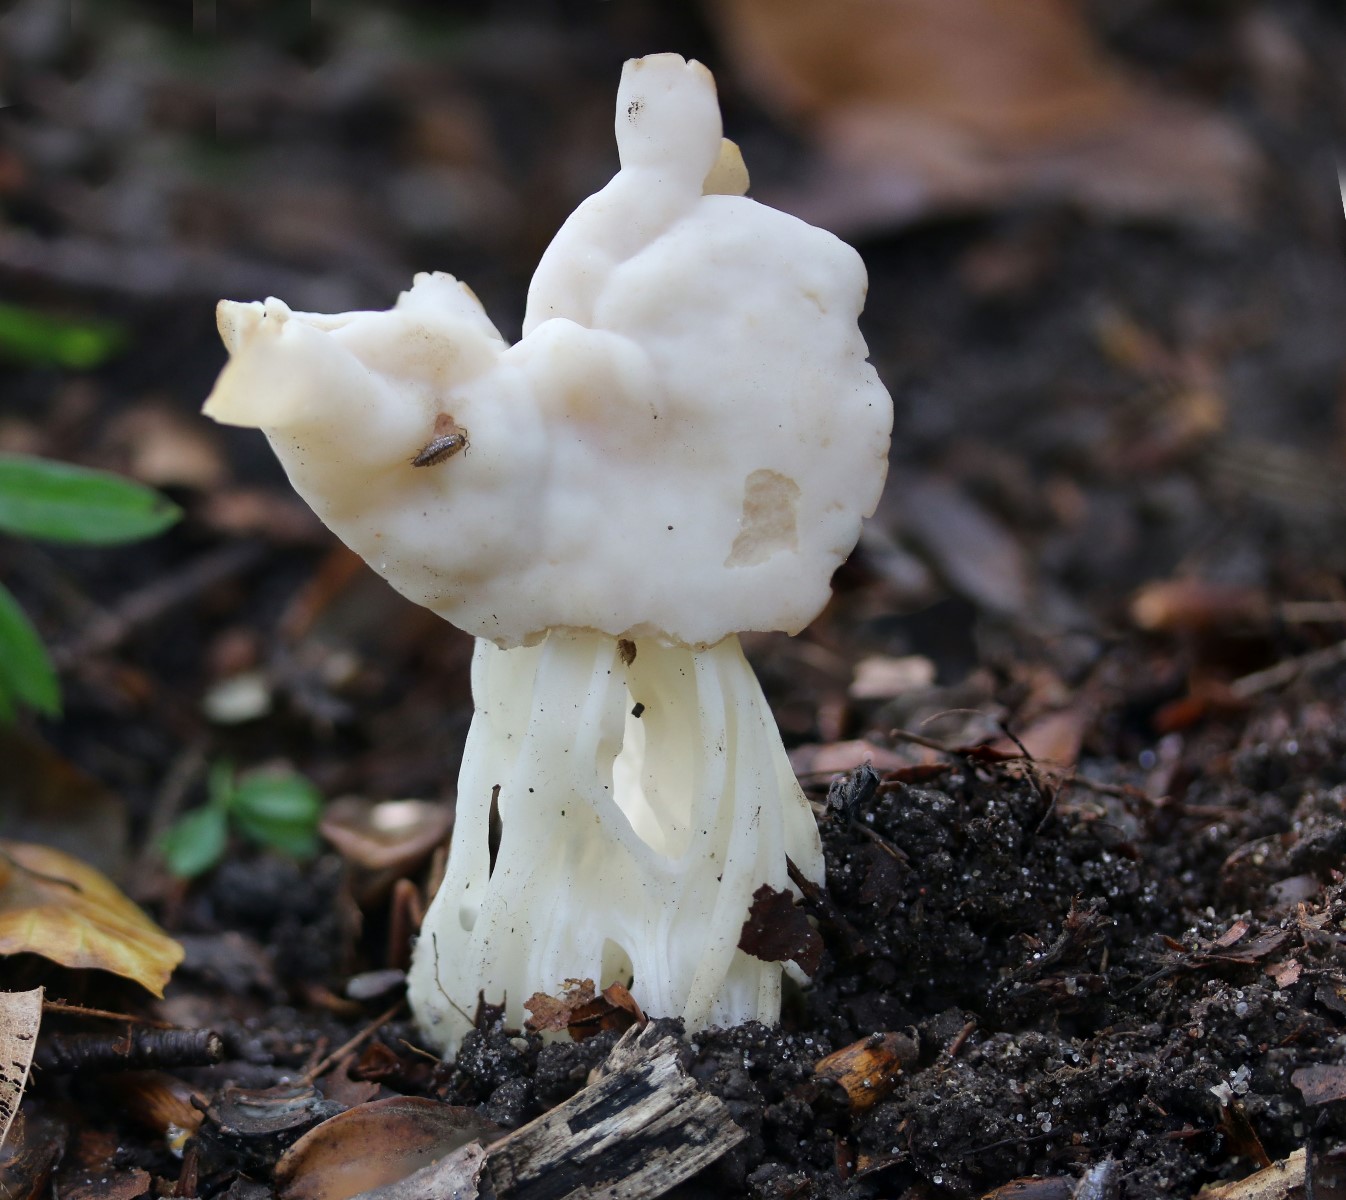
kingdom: Fungi
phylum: Ascomycota
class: Pezizomycetes
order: Pezizales
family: Helvellaceae
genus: Helvella
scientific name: Helvella crispa
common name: kruset foldhat
